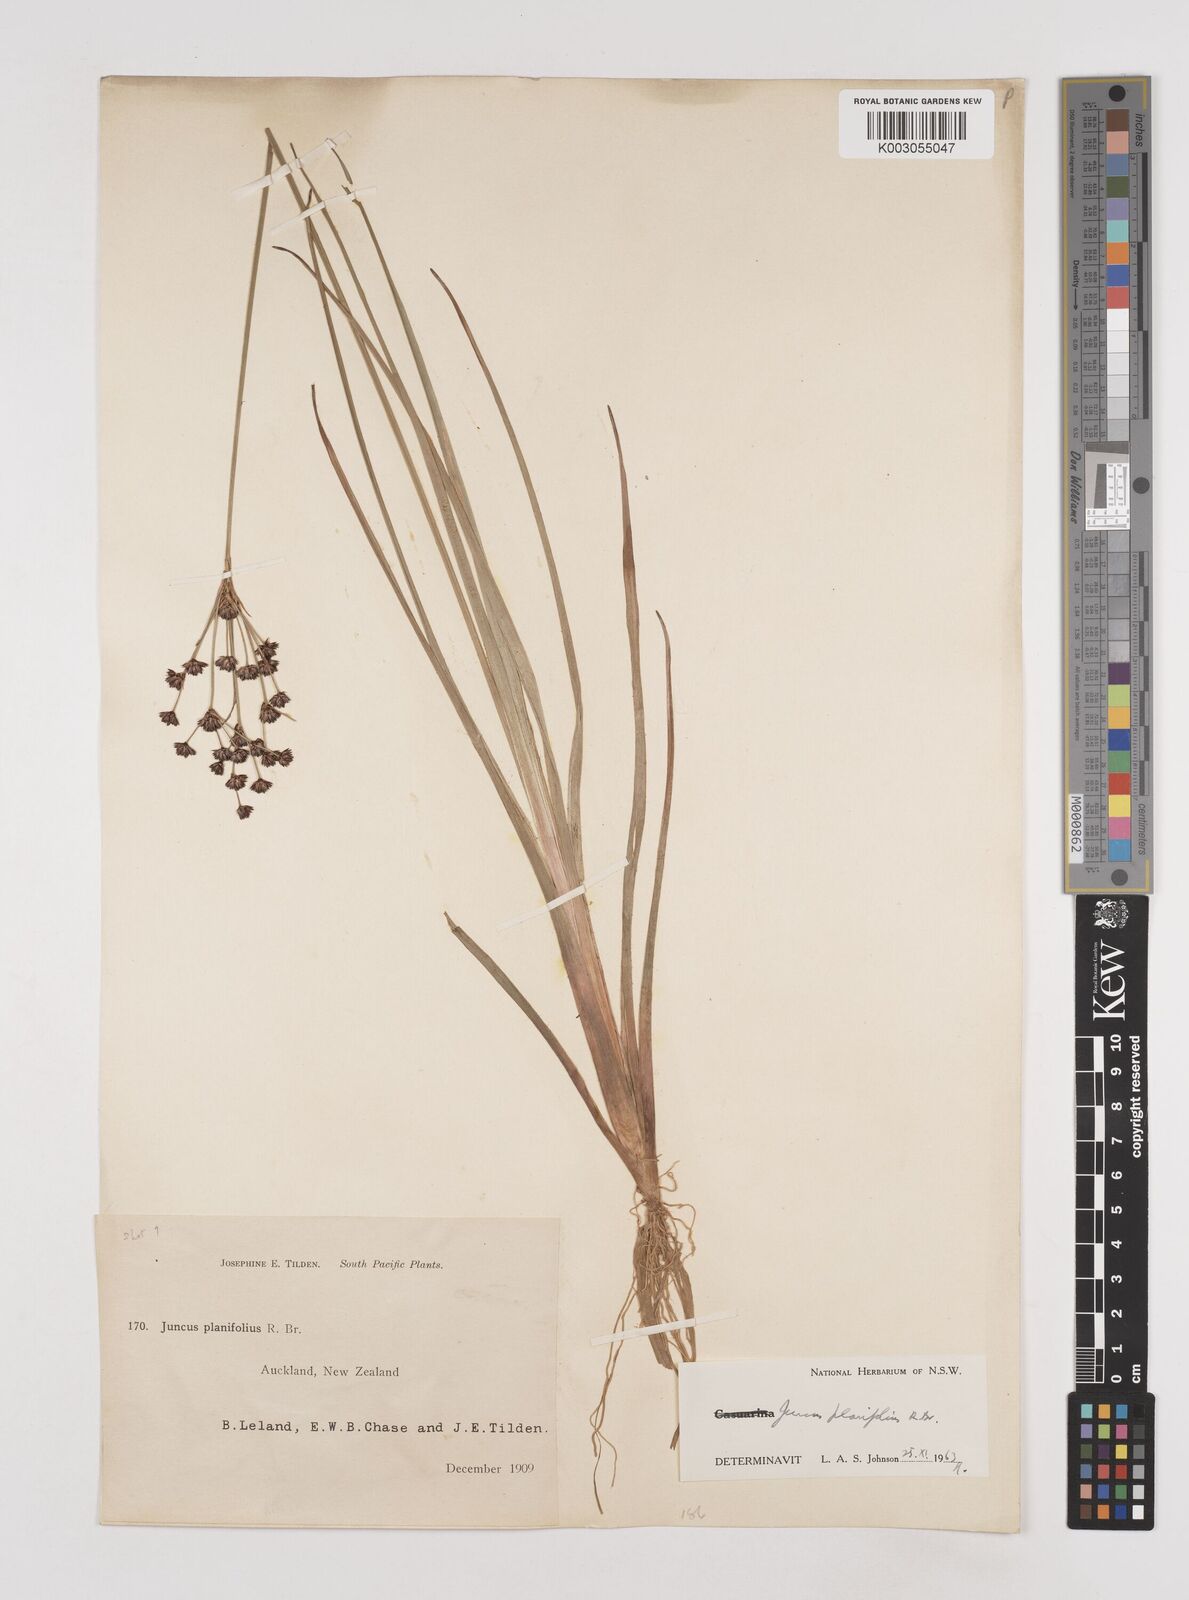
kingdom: Plantae
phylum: Tracheophyta
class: Liliopsida
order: Poales
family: Juncaceae
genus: Juncus
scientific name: Juncus planifolius
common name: Broadleaf rush
